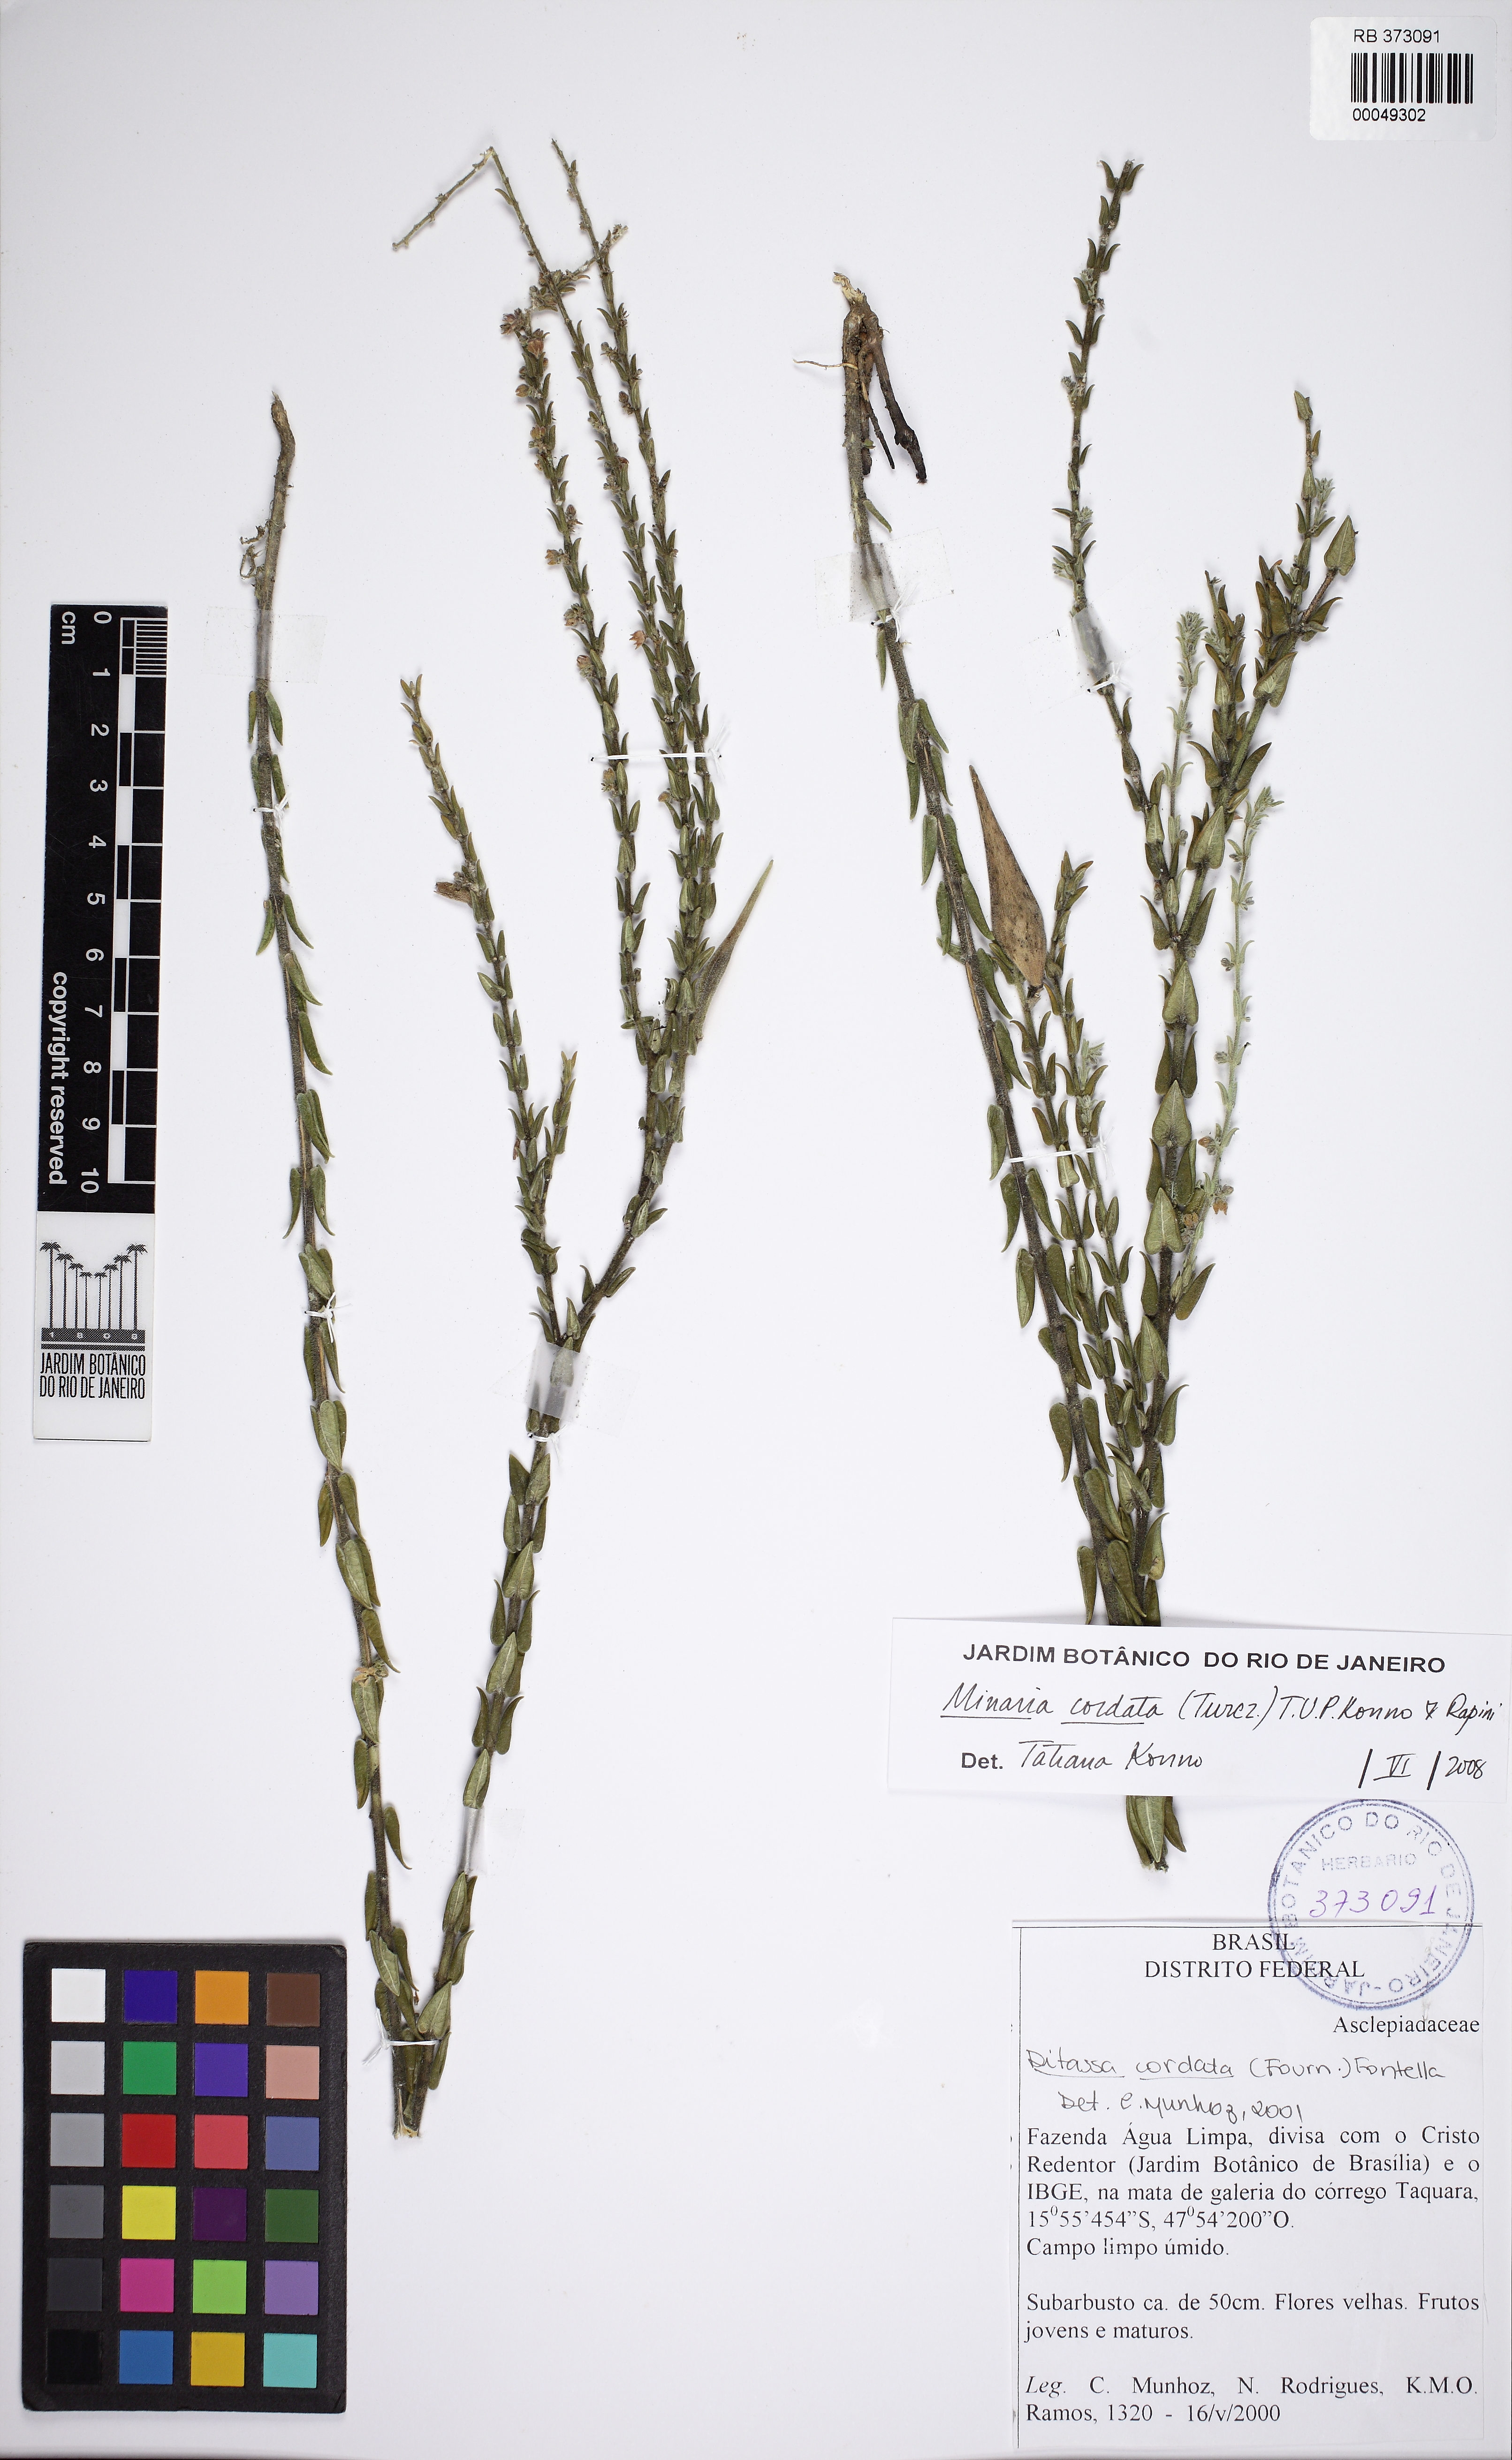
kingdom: Plantae
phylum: Tracheophyta
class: Magnoliopsida
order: Gentianales
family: Apocynaceae
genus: Minaria
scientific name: Minaria cordata
